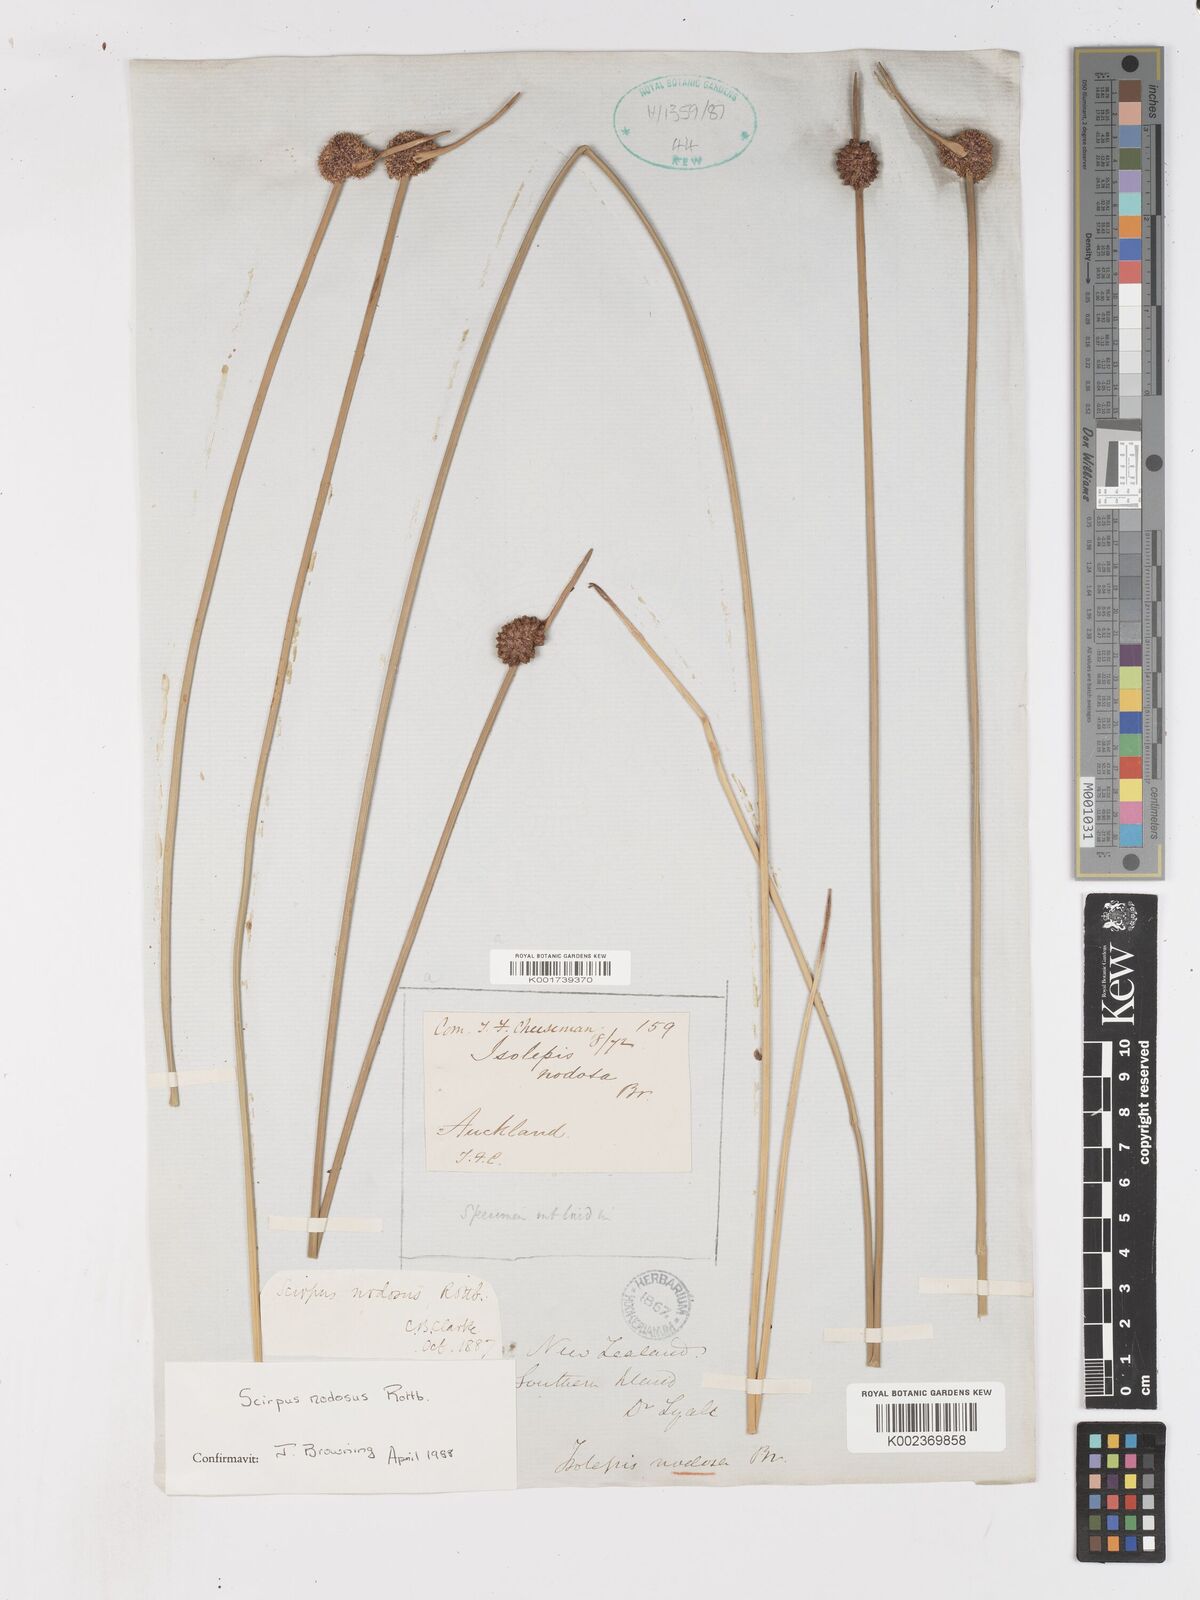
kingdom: Plantae
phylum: Tracheophyta
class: Liliopsida
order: Poales
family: Cyperaceae
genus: Ficinia
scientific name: Ficinia nodosa
